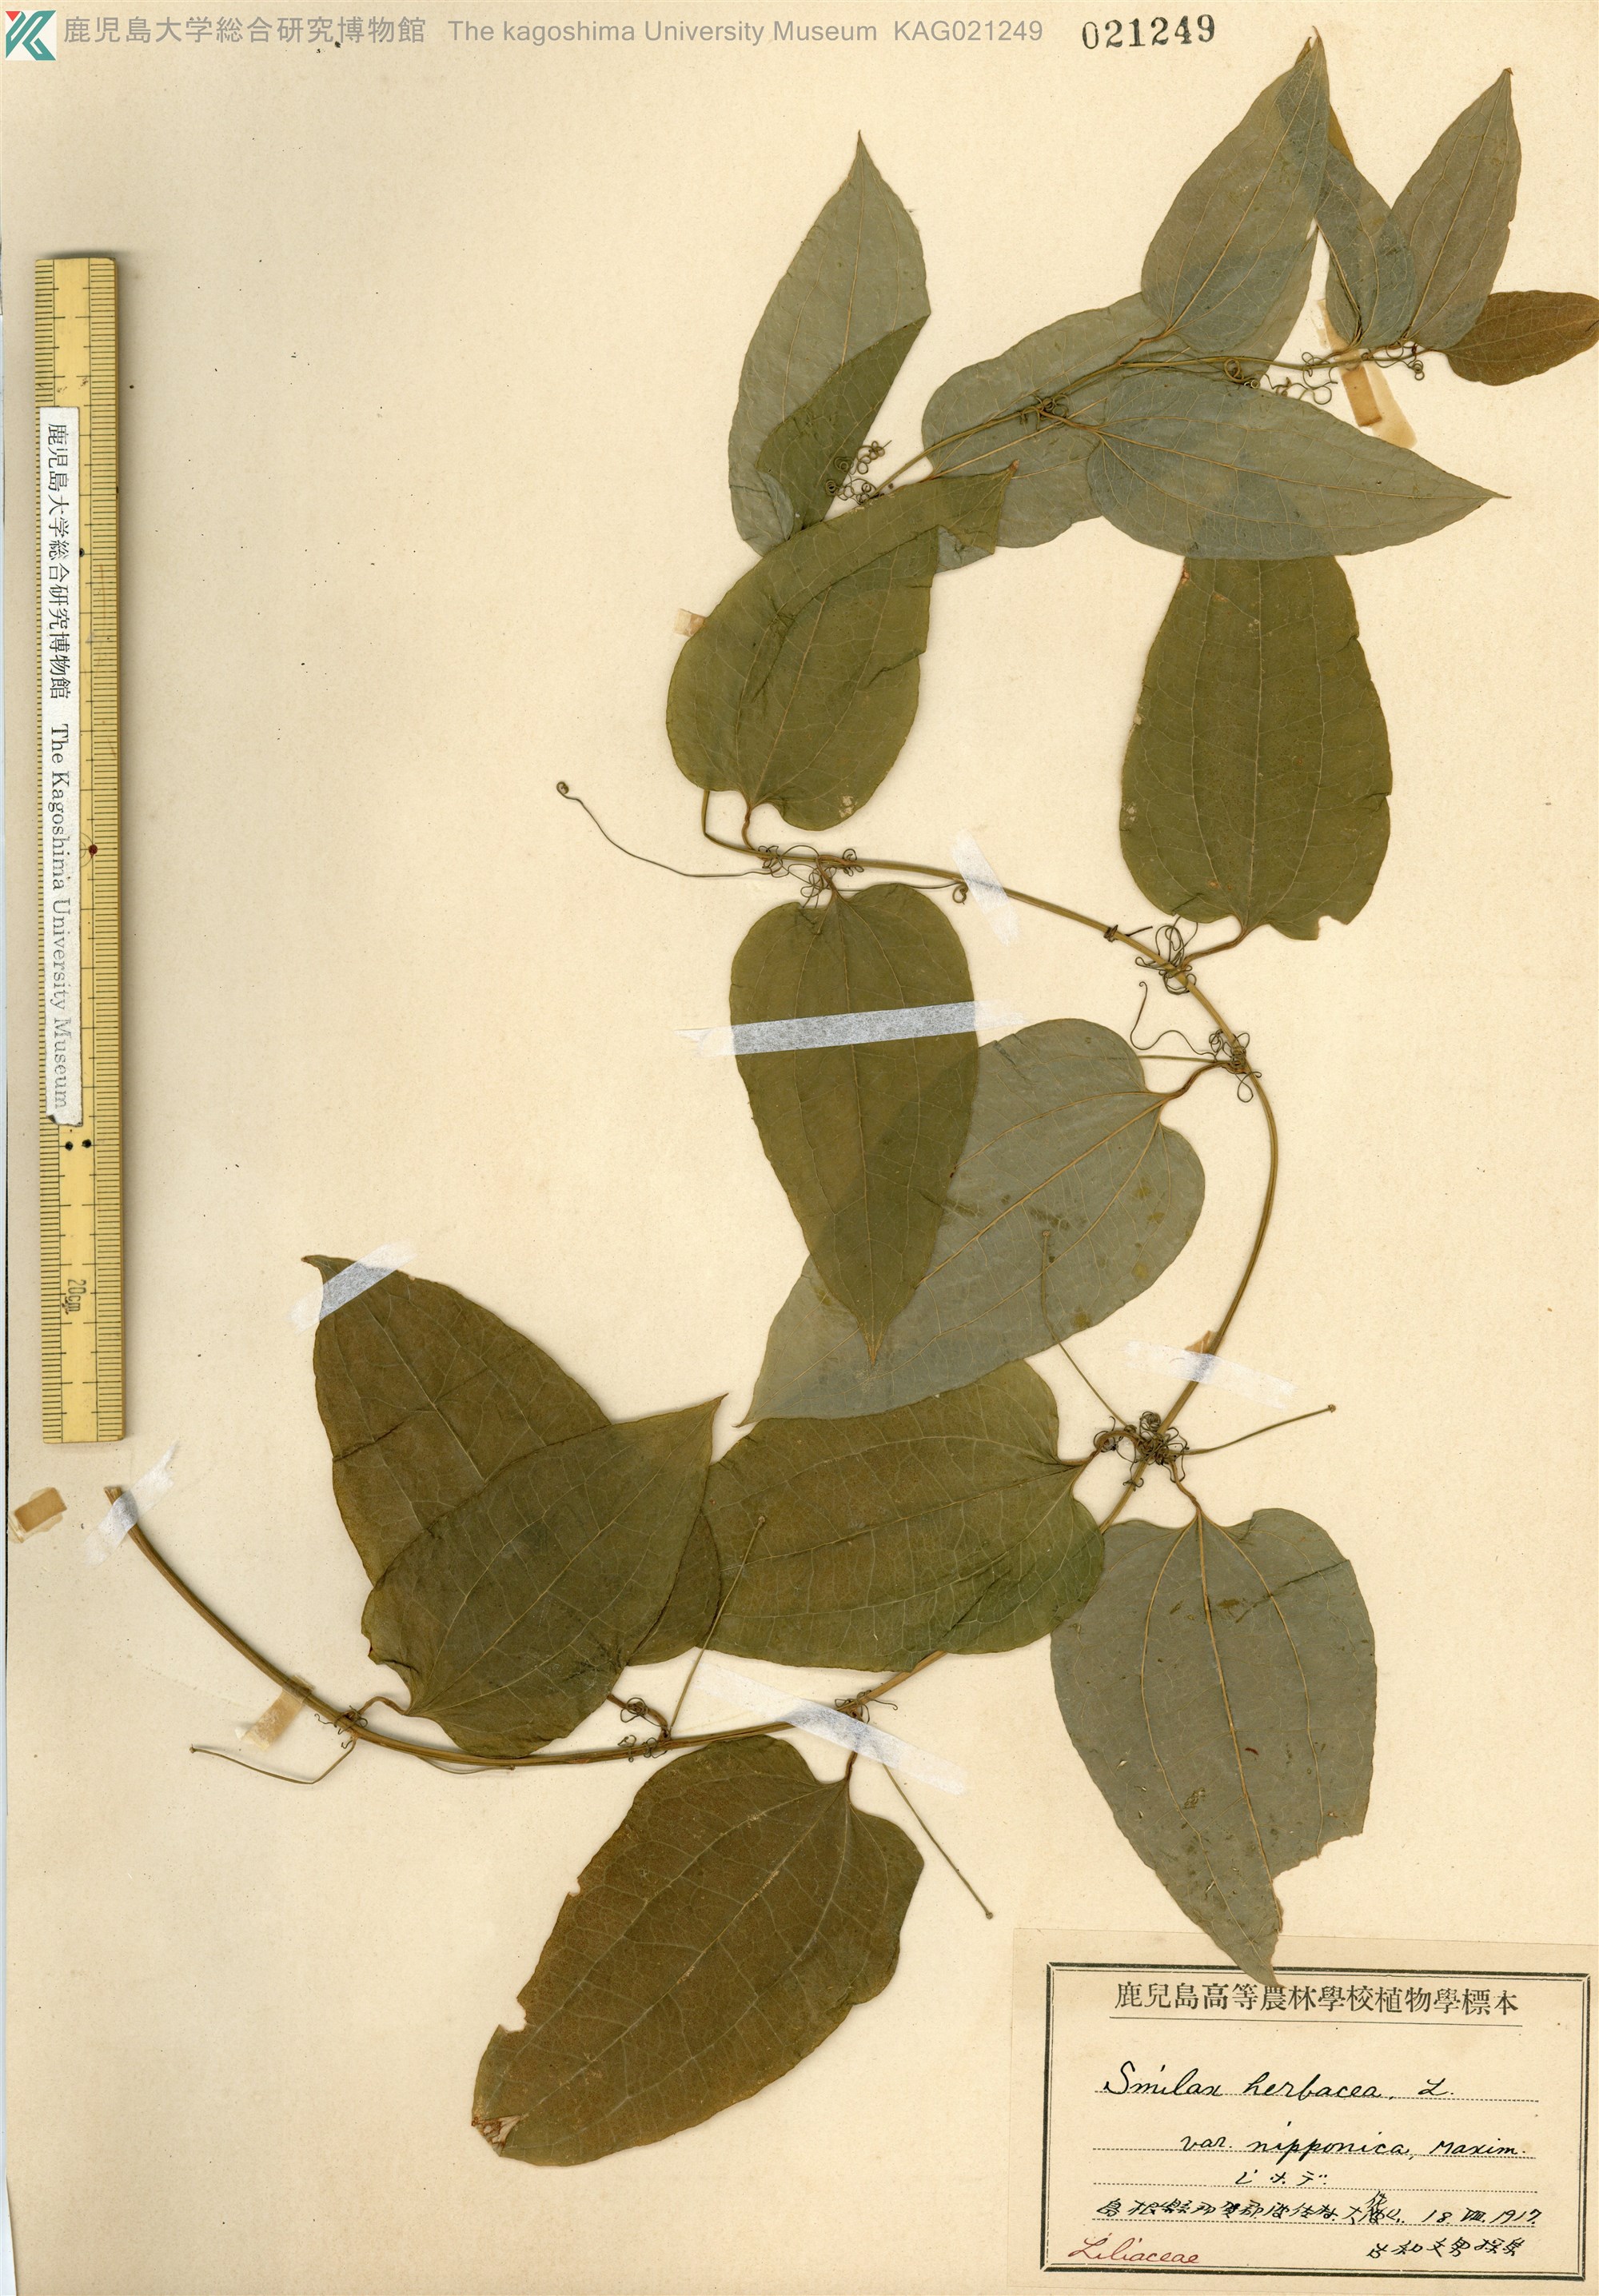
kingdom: Plantae
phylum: Tracheophyta
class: Liliopsida
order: Liliales
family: Smilacaceae
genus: Smilax
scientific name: Smilax riparia
